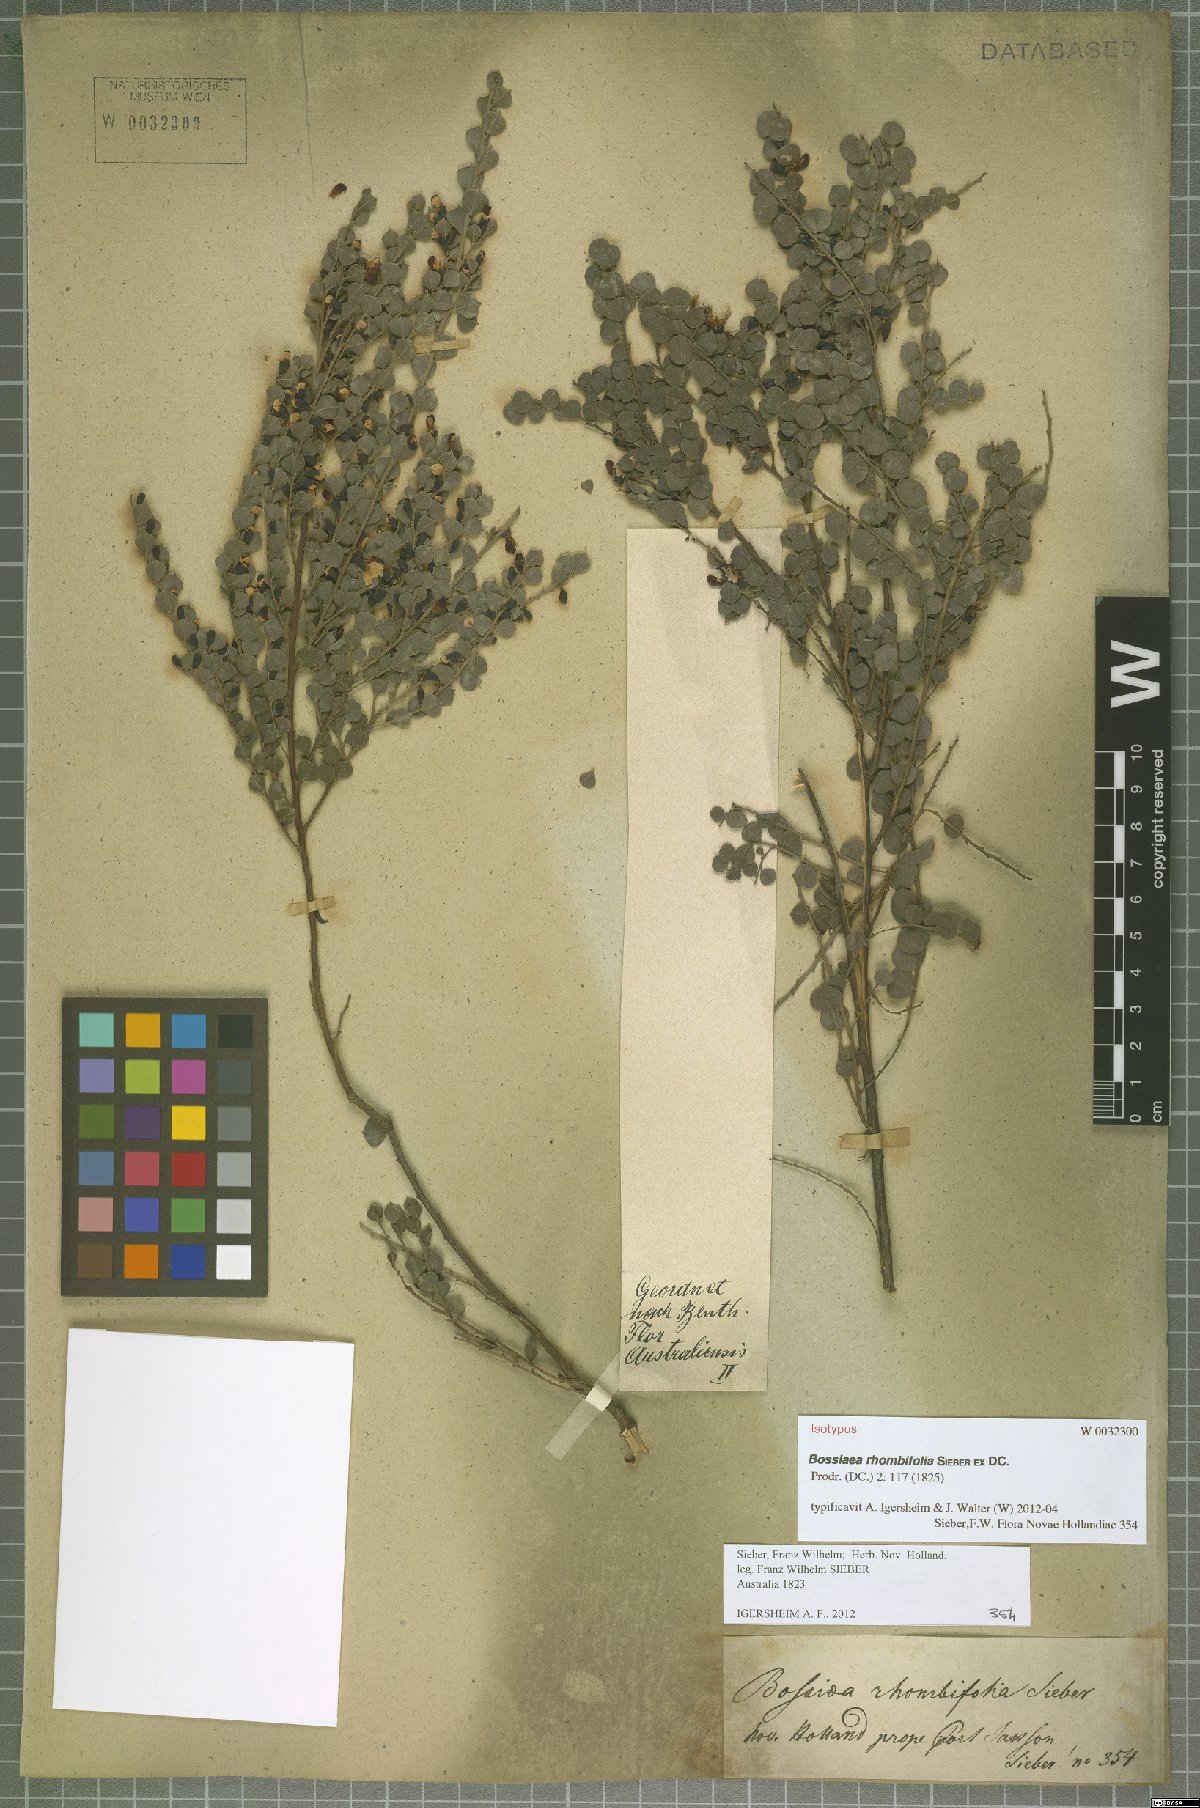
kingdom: Plantae
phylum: Tracheophyta
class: Magnoliopsida
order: Fabales
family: Fabaceae
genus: Bossiaea
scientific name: Bossiaea rhombifolia
